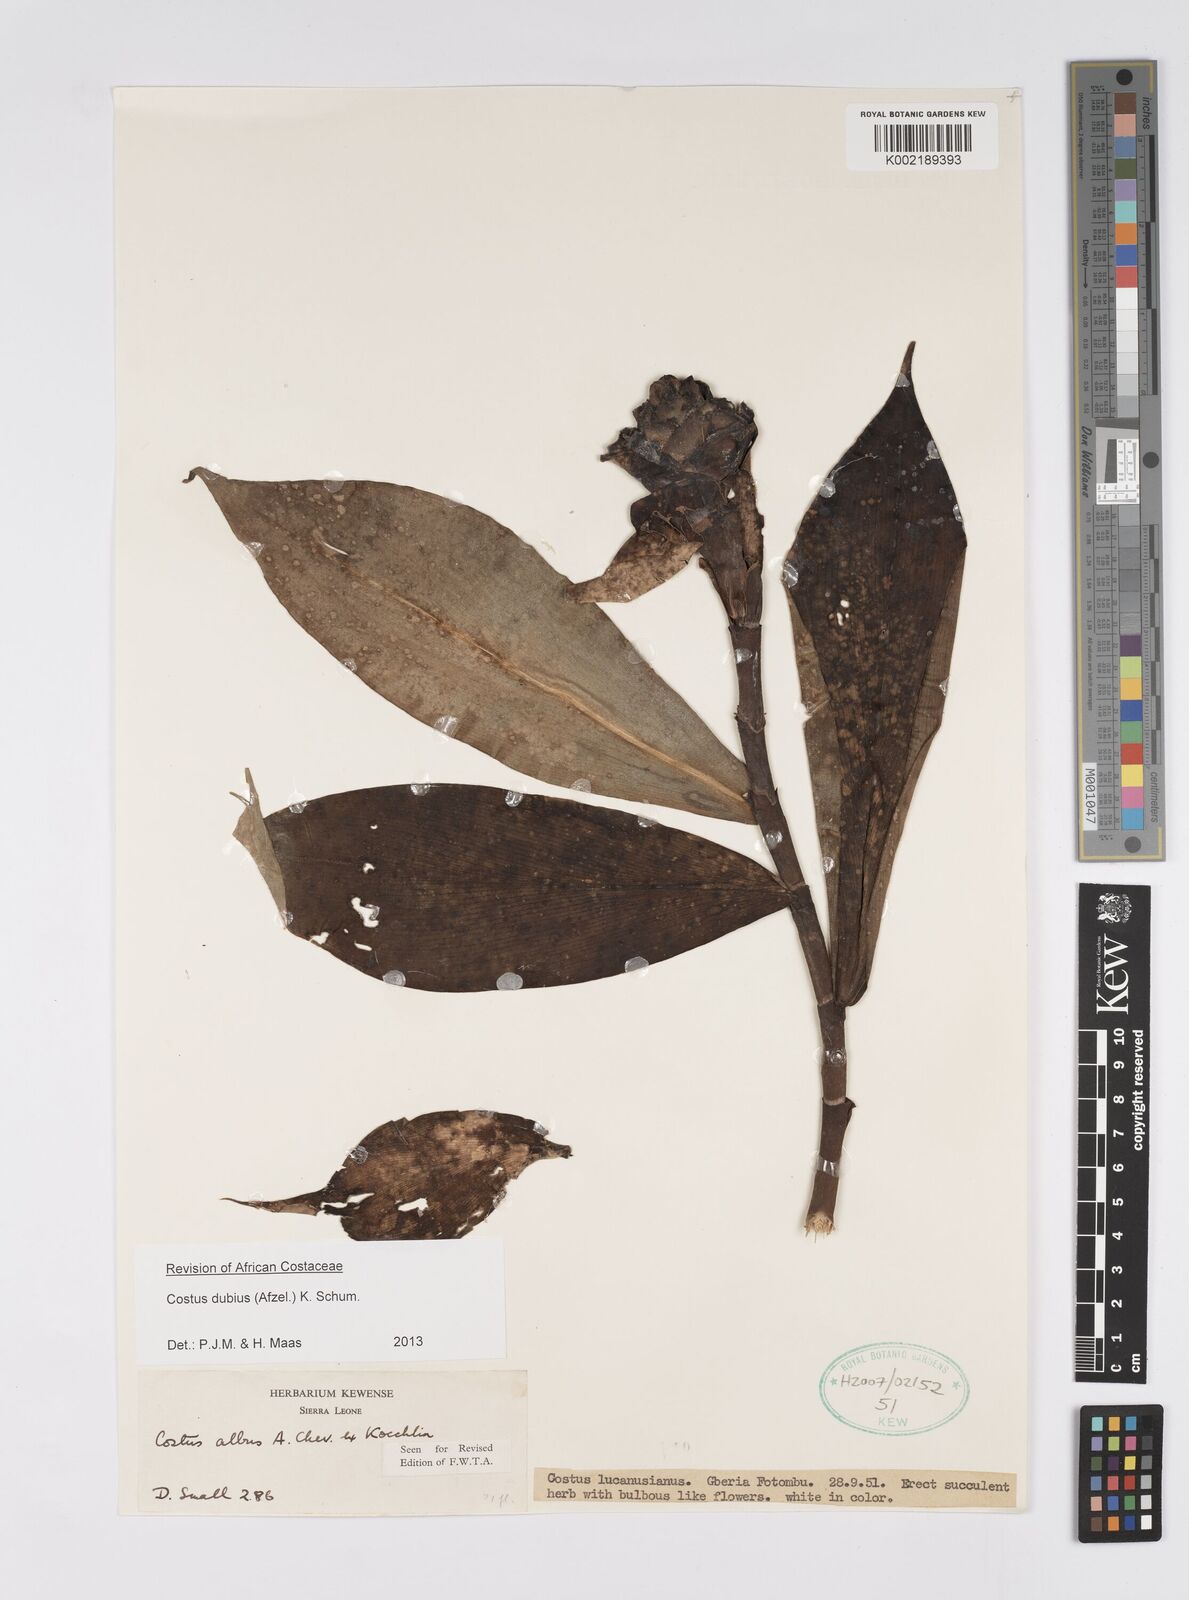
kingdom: Plantae
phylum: Tracheophyta
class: Liliopsida
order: Zingiberales
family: Costaceae
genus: Costus
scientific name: Costus dubius
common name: Costus
